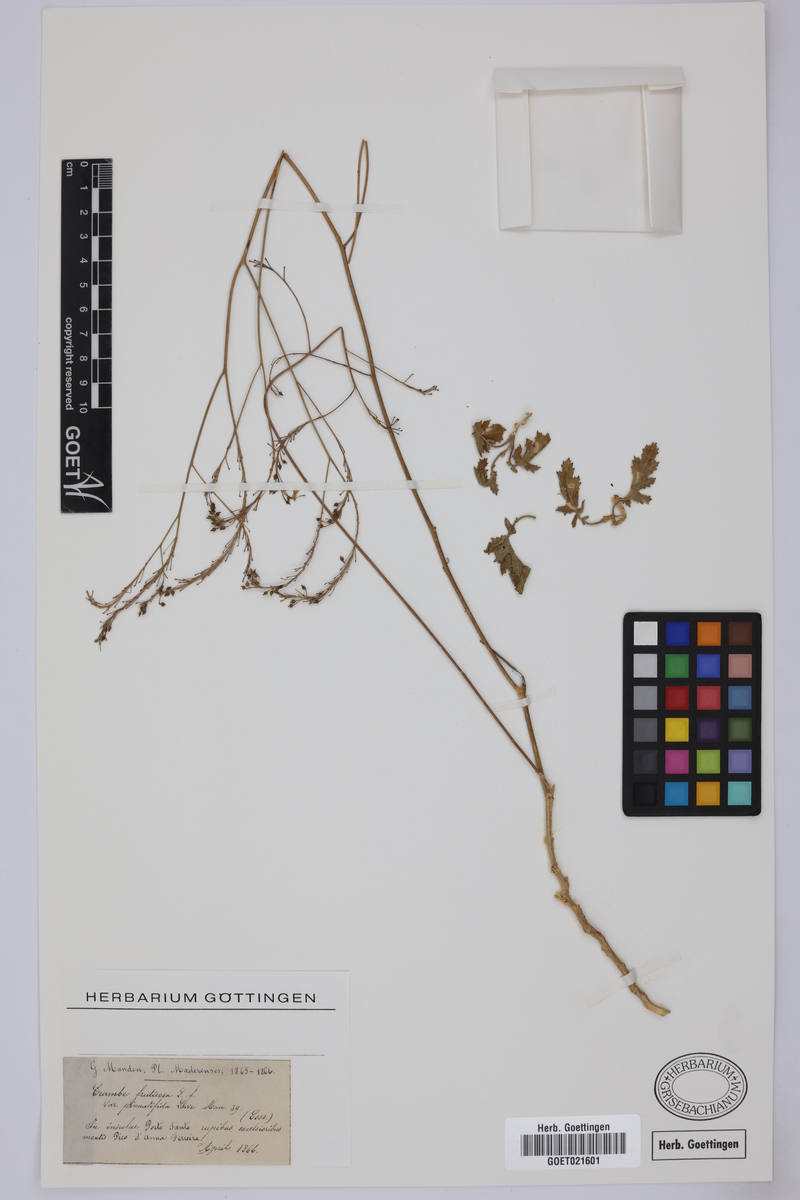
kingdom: Plantae
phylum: Tracheophyta
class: Magnoliopsida
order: Brassicales
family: Brassicaceae
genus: Crambe
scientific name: Crambe fruticosa
